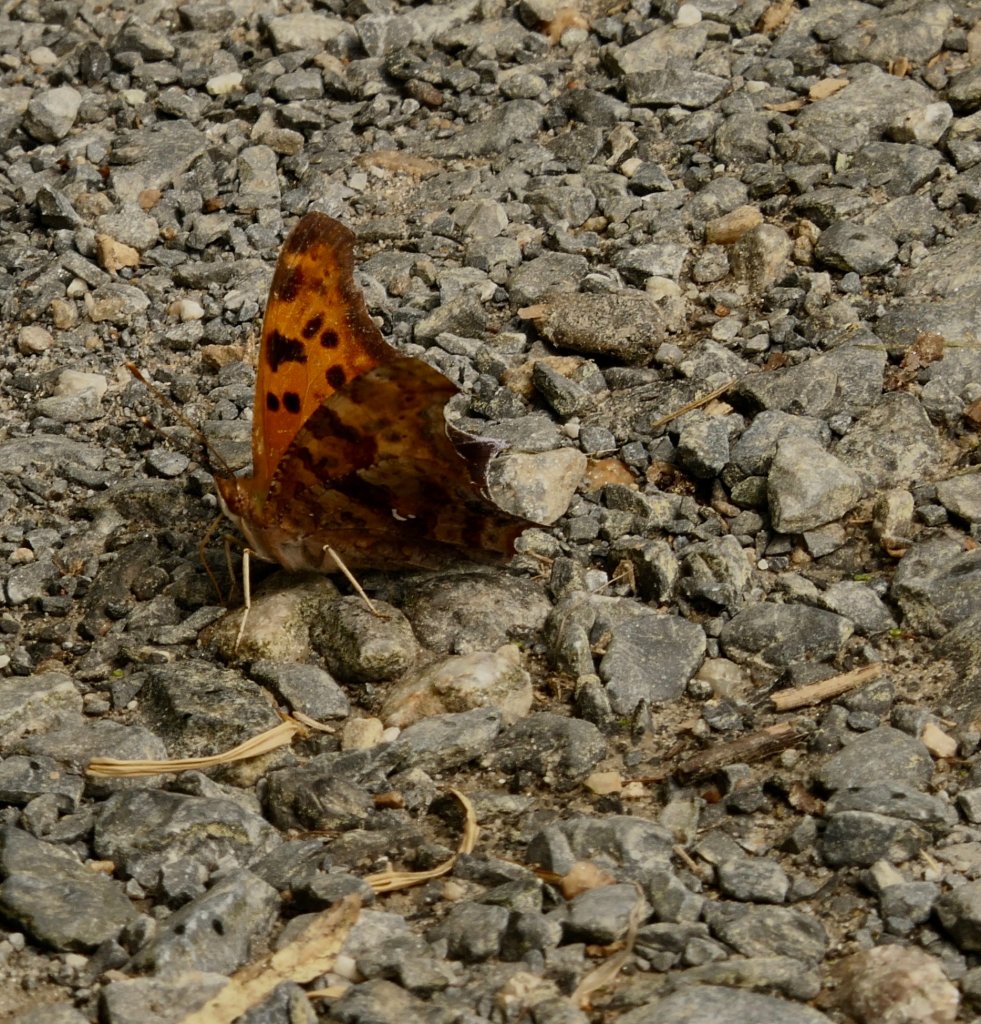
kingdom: Animalia
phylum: Arthropoda
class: Insecta
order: Lepidoptera
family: Nymphalidae
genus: Polygonia
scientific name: Polygonia interrogationis
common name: Question Mark
